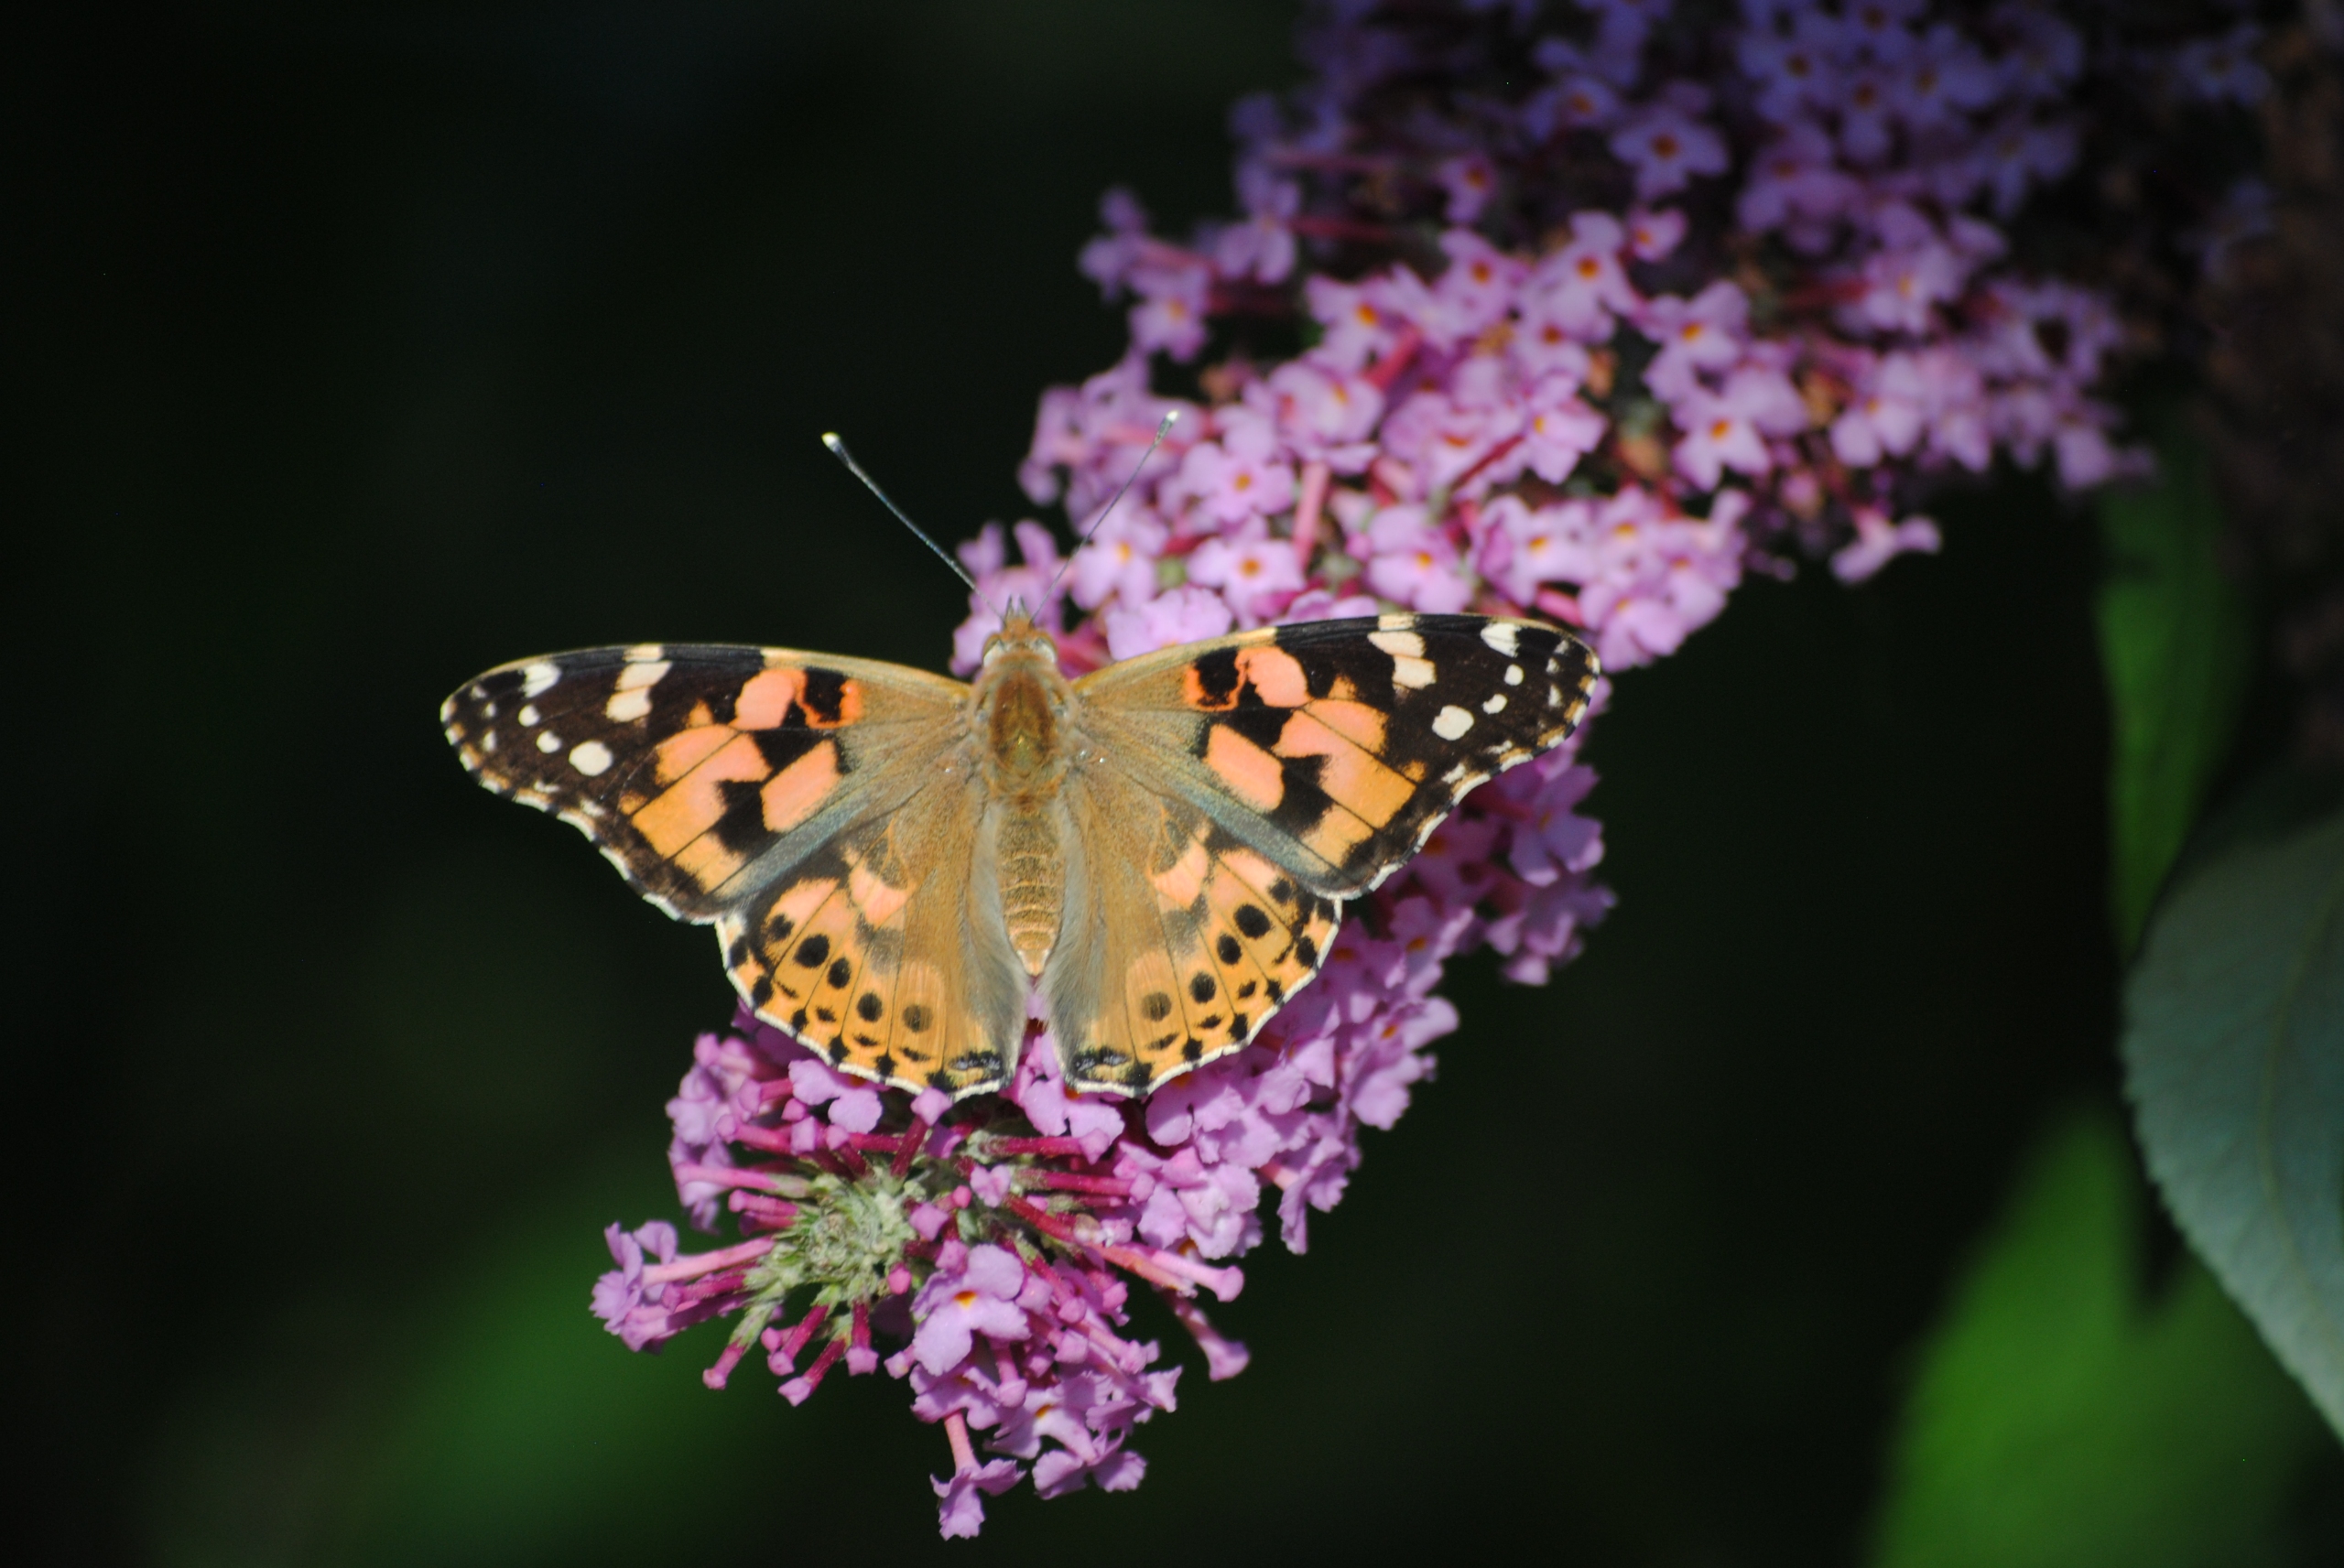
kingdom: Animalia
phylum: Arthropoda
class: Insecta
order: Lepidoptera
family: Nymphalidae
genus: Vanessa
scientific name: Vanessa cardui
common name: Tidselsommerfugl
